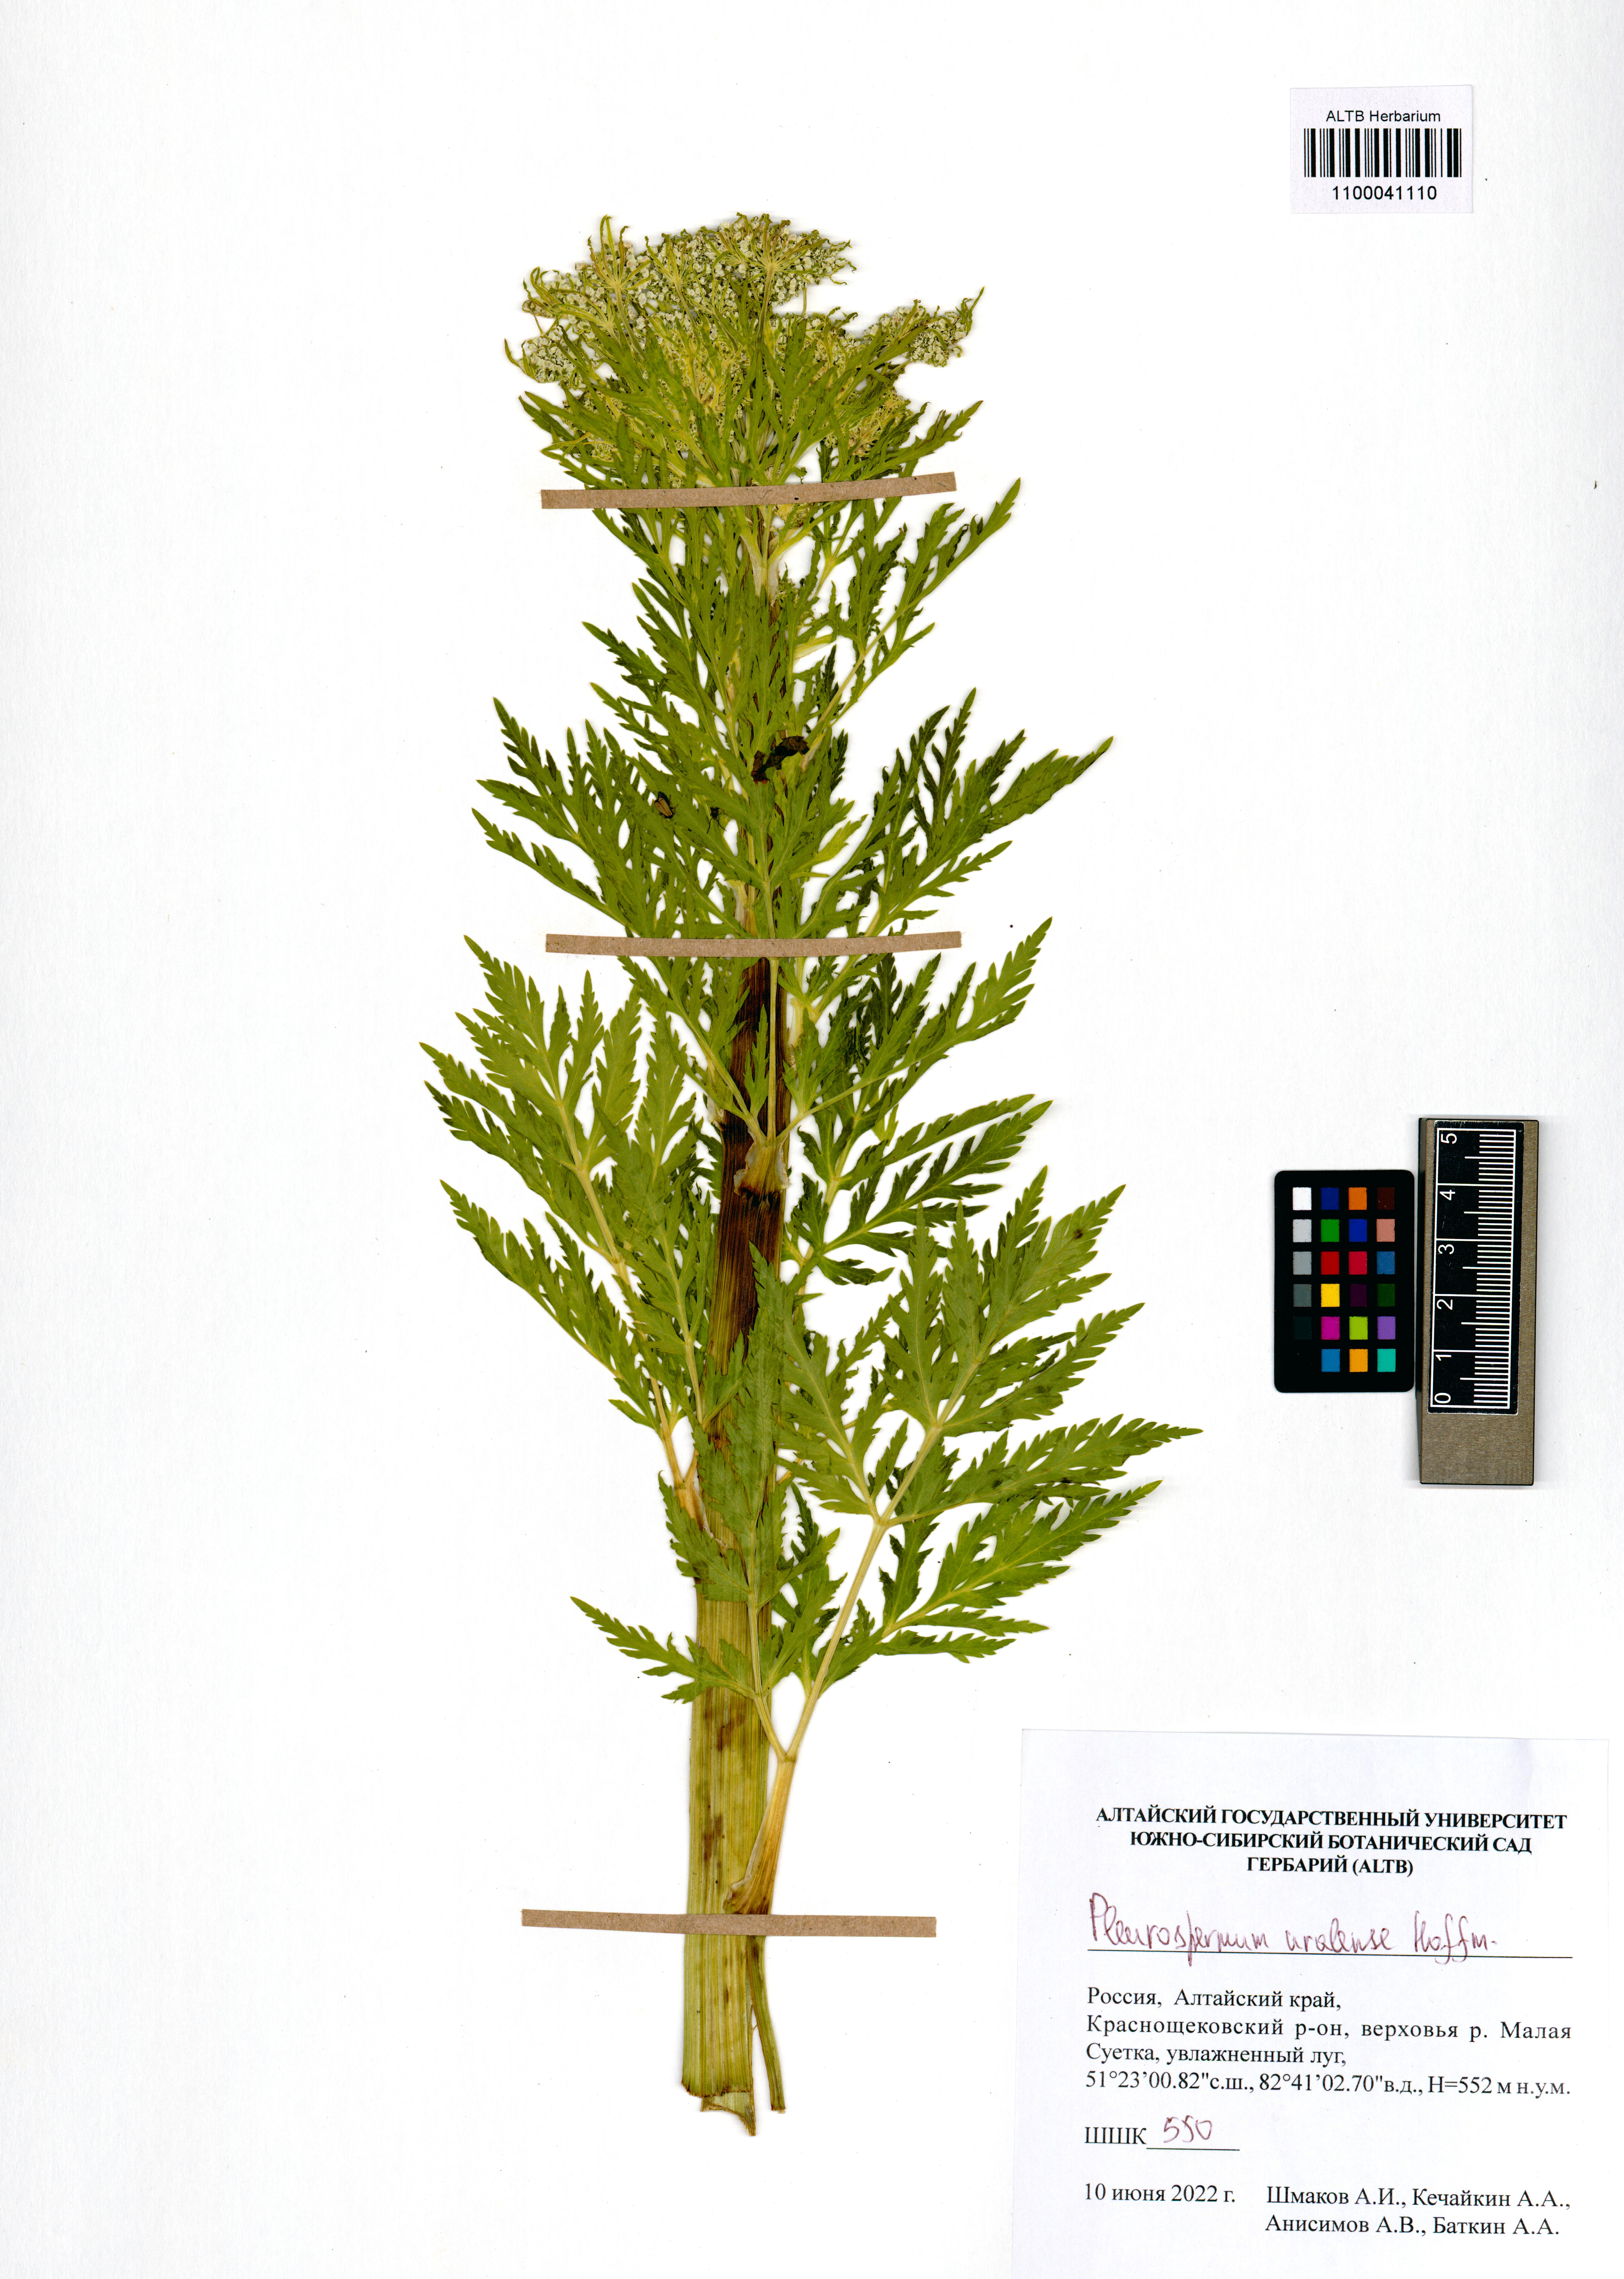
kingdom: Plantae
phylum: Tracheophyta
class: Magnoliopsida
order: Apiales
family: Apiaceae
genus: Pleurospermum
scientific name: Pleurospermum uralense
